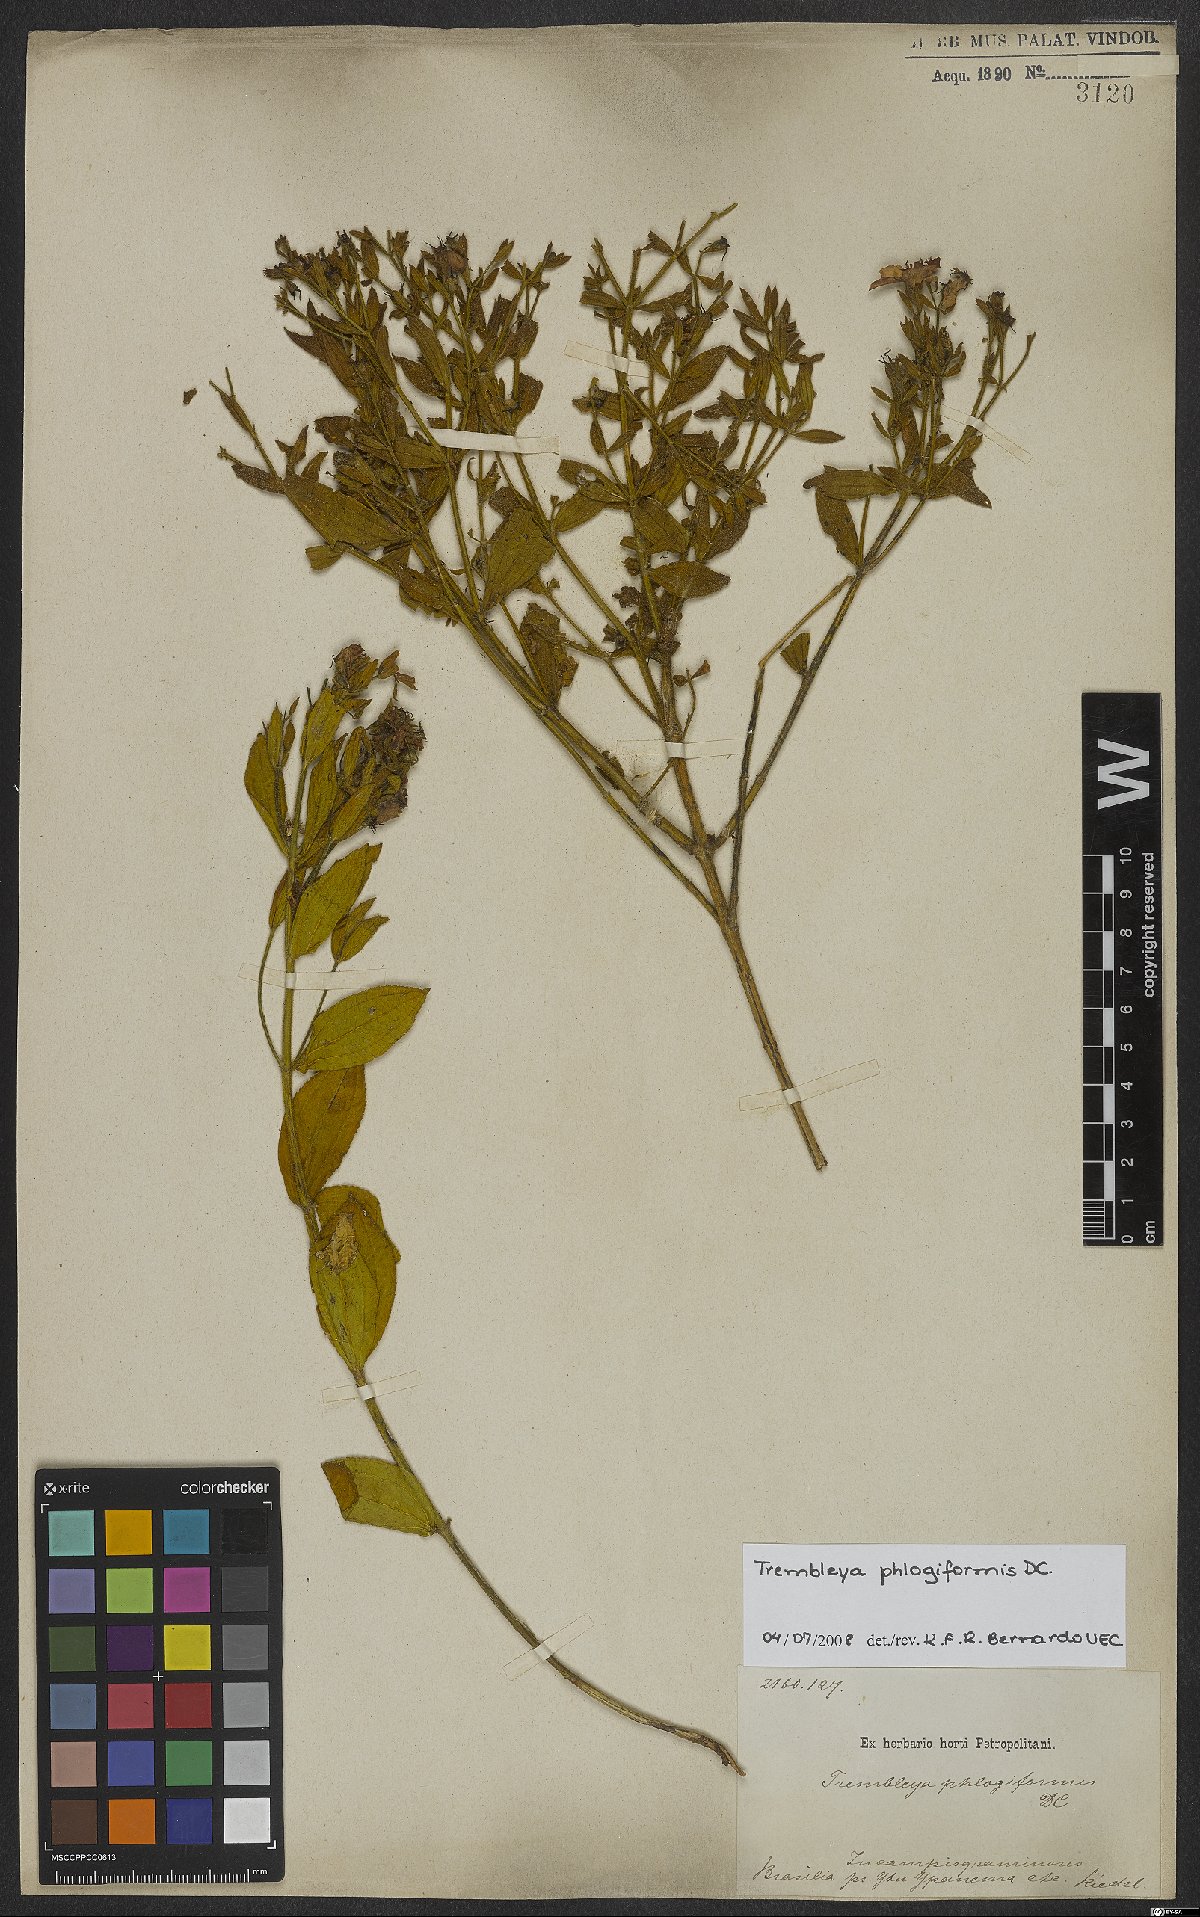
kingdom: Plantae
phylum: Tracheophyta
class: Magnoliopsida
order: Myrtales
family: Melastomataceae
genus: Microlicia
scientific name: Microlicia phlogiformis
